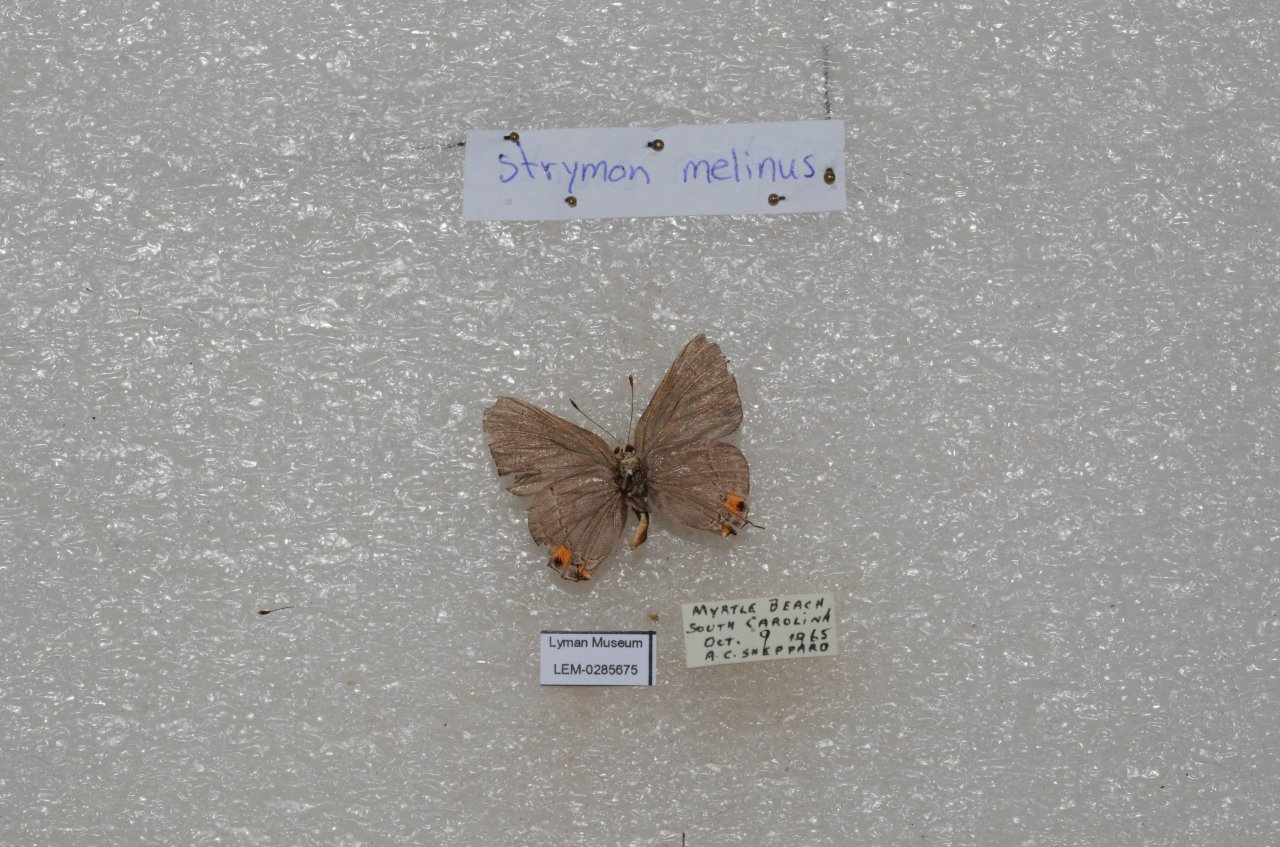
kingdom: Animalia
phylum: Arthropoda
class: Insecta
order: Lepidoptera
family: Lycaenidae
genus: Strymon
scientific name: Strymon melinus
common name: Gray Hairstreak
